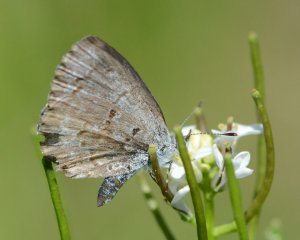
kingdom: Animalia
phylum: Arthropoda
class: Insecta
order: Lepidoptera
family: Lycaenidae
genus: Celastrina
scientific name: Celastrina lucia
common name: Northern Spring Azure
